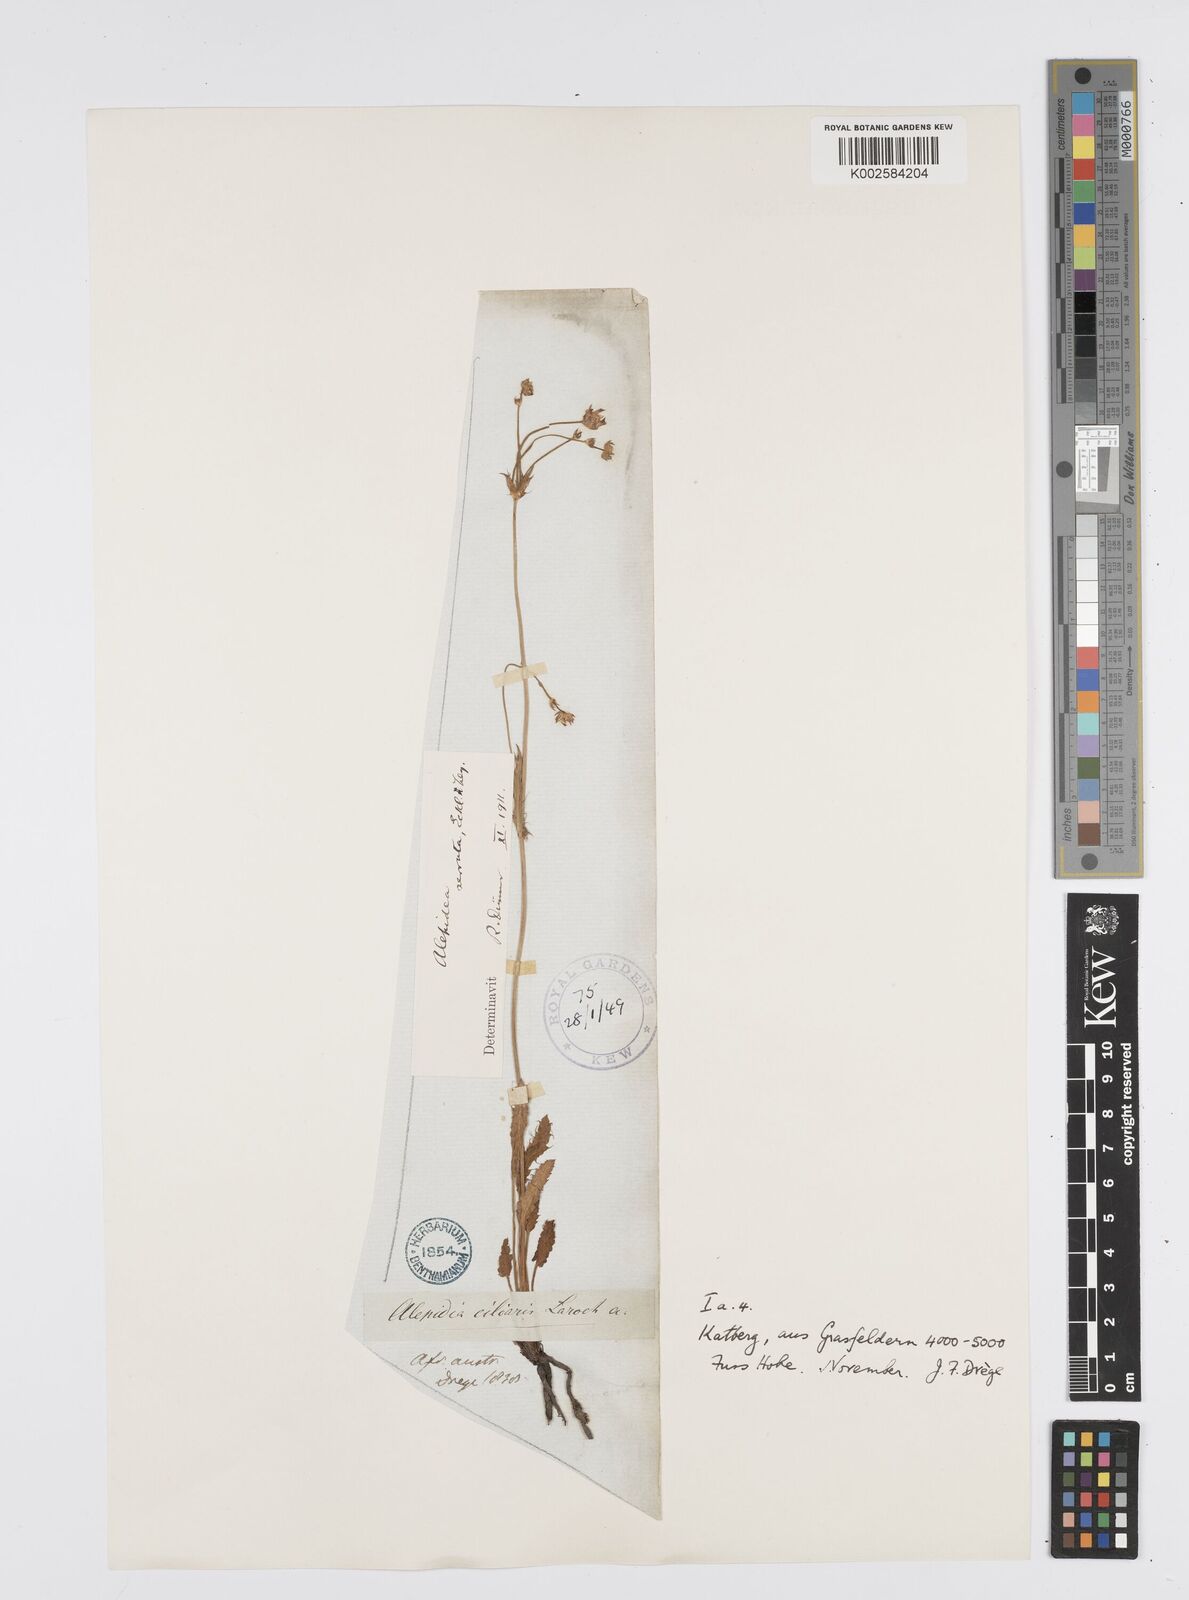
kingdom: Plantae
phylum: Tracheophyta
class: Magnoliopsida
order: Apiales
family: Apiaceae
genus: Alepidea
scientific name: Alepidea serrata
